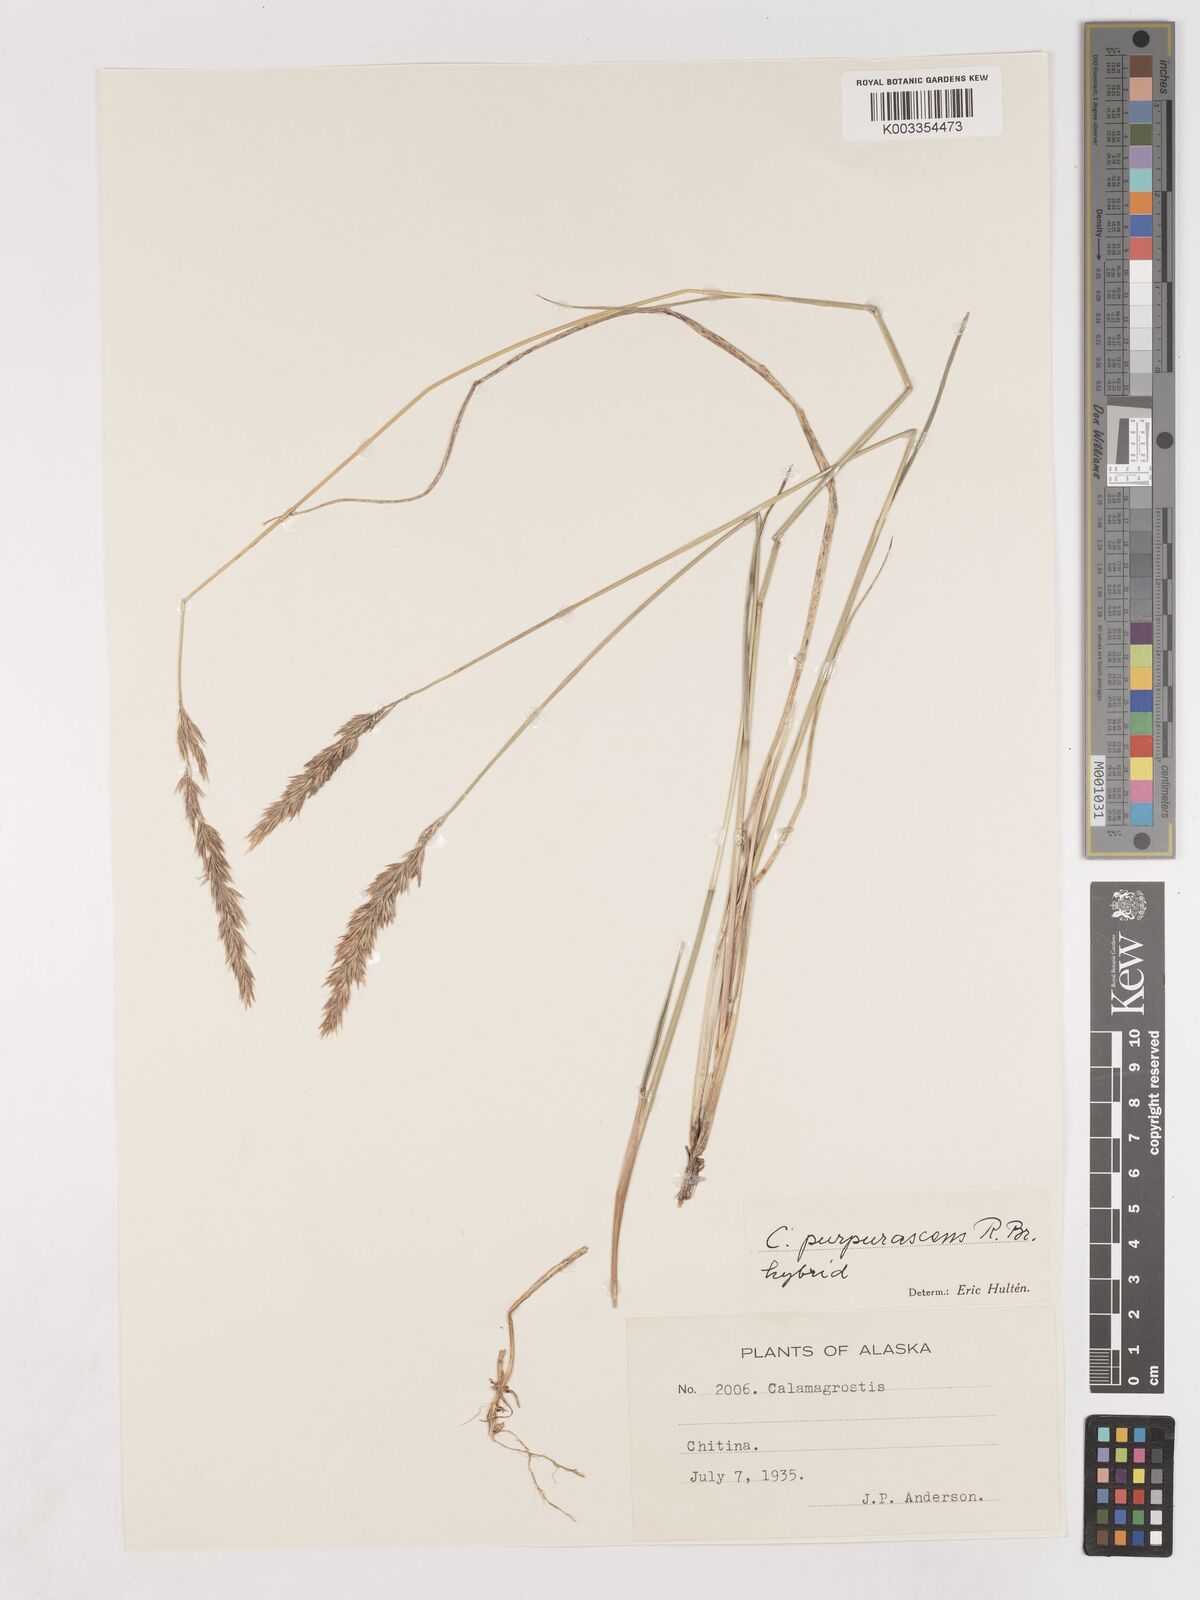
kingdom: Plantae
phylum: Tracheophyta
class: Liliopsida
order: Poales
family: Poaceae
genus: Calamagrostis
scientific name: Calamagrostis purpurascens
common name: Purple reedgrass
